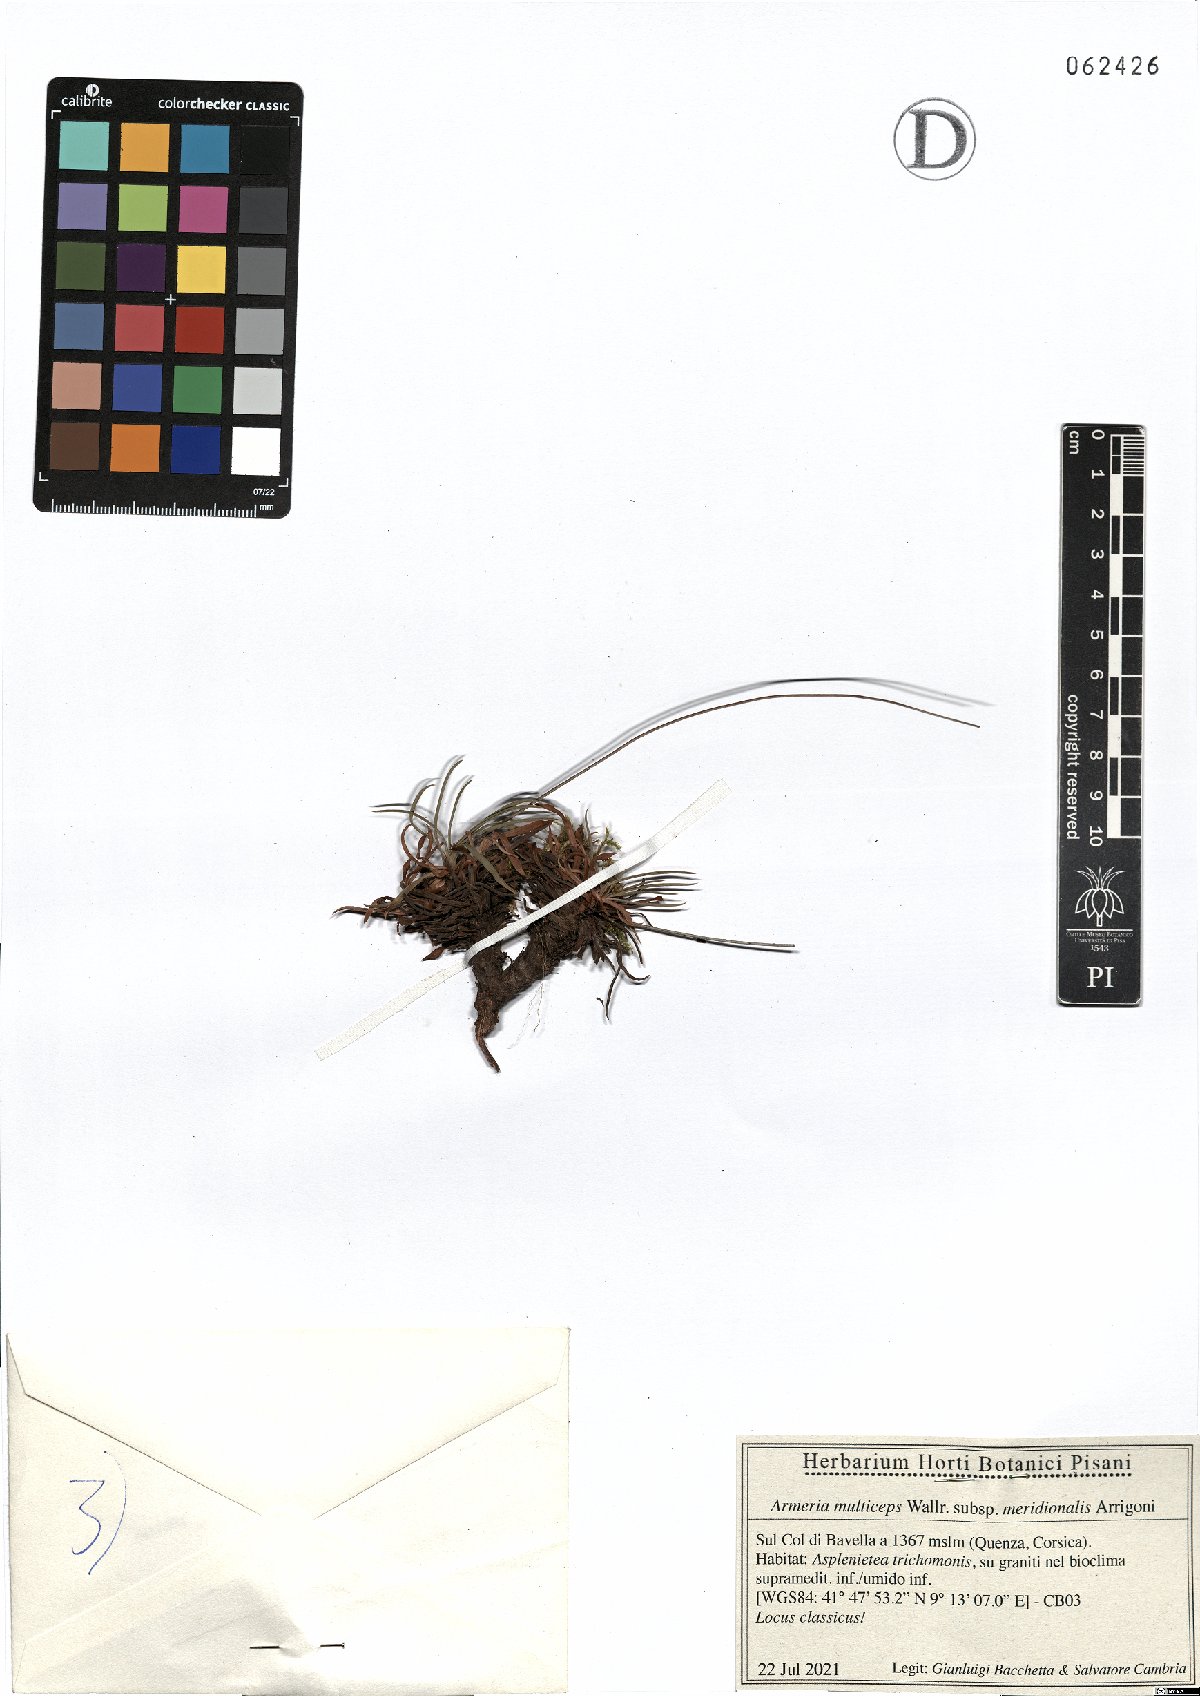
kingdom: Plantae
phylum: Tracheophyta
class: Magnoliopsida
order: Caryophyllales
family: Plumbaginaceae
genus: Armeria
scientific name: Armeria multiceps
